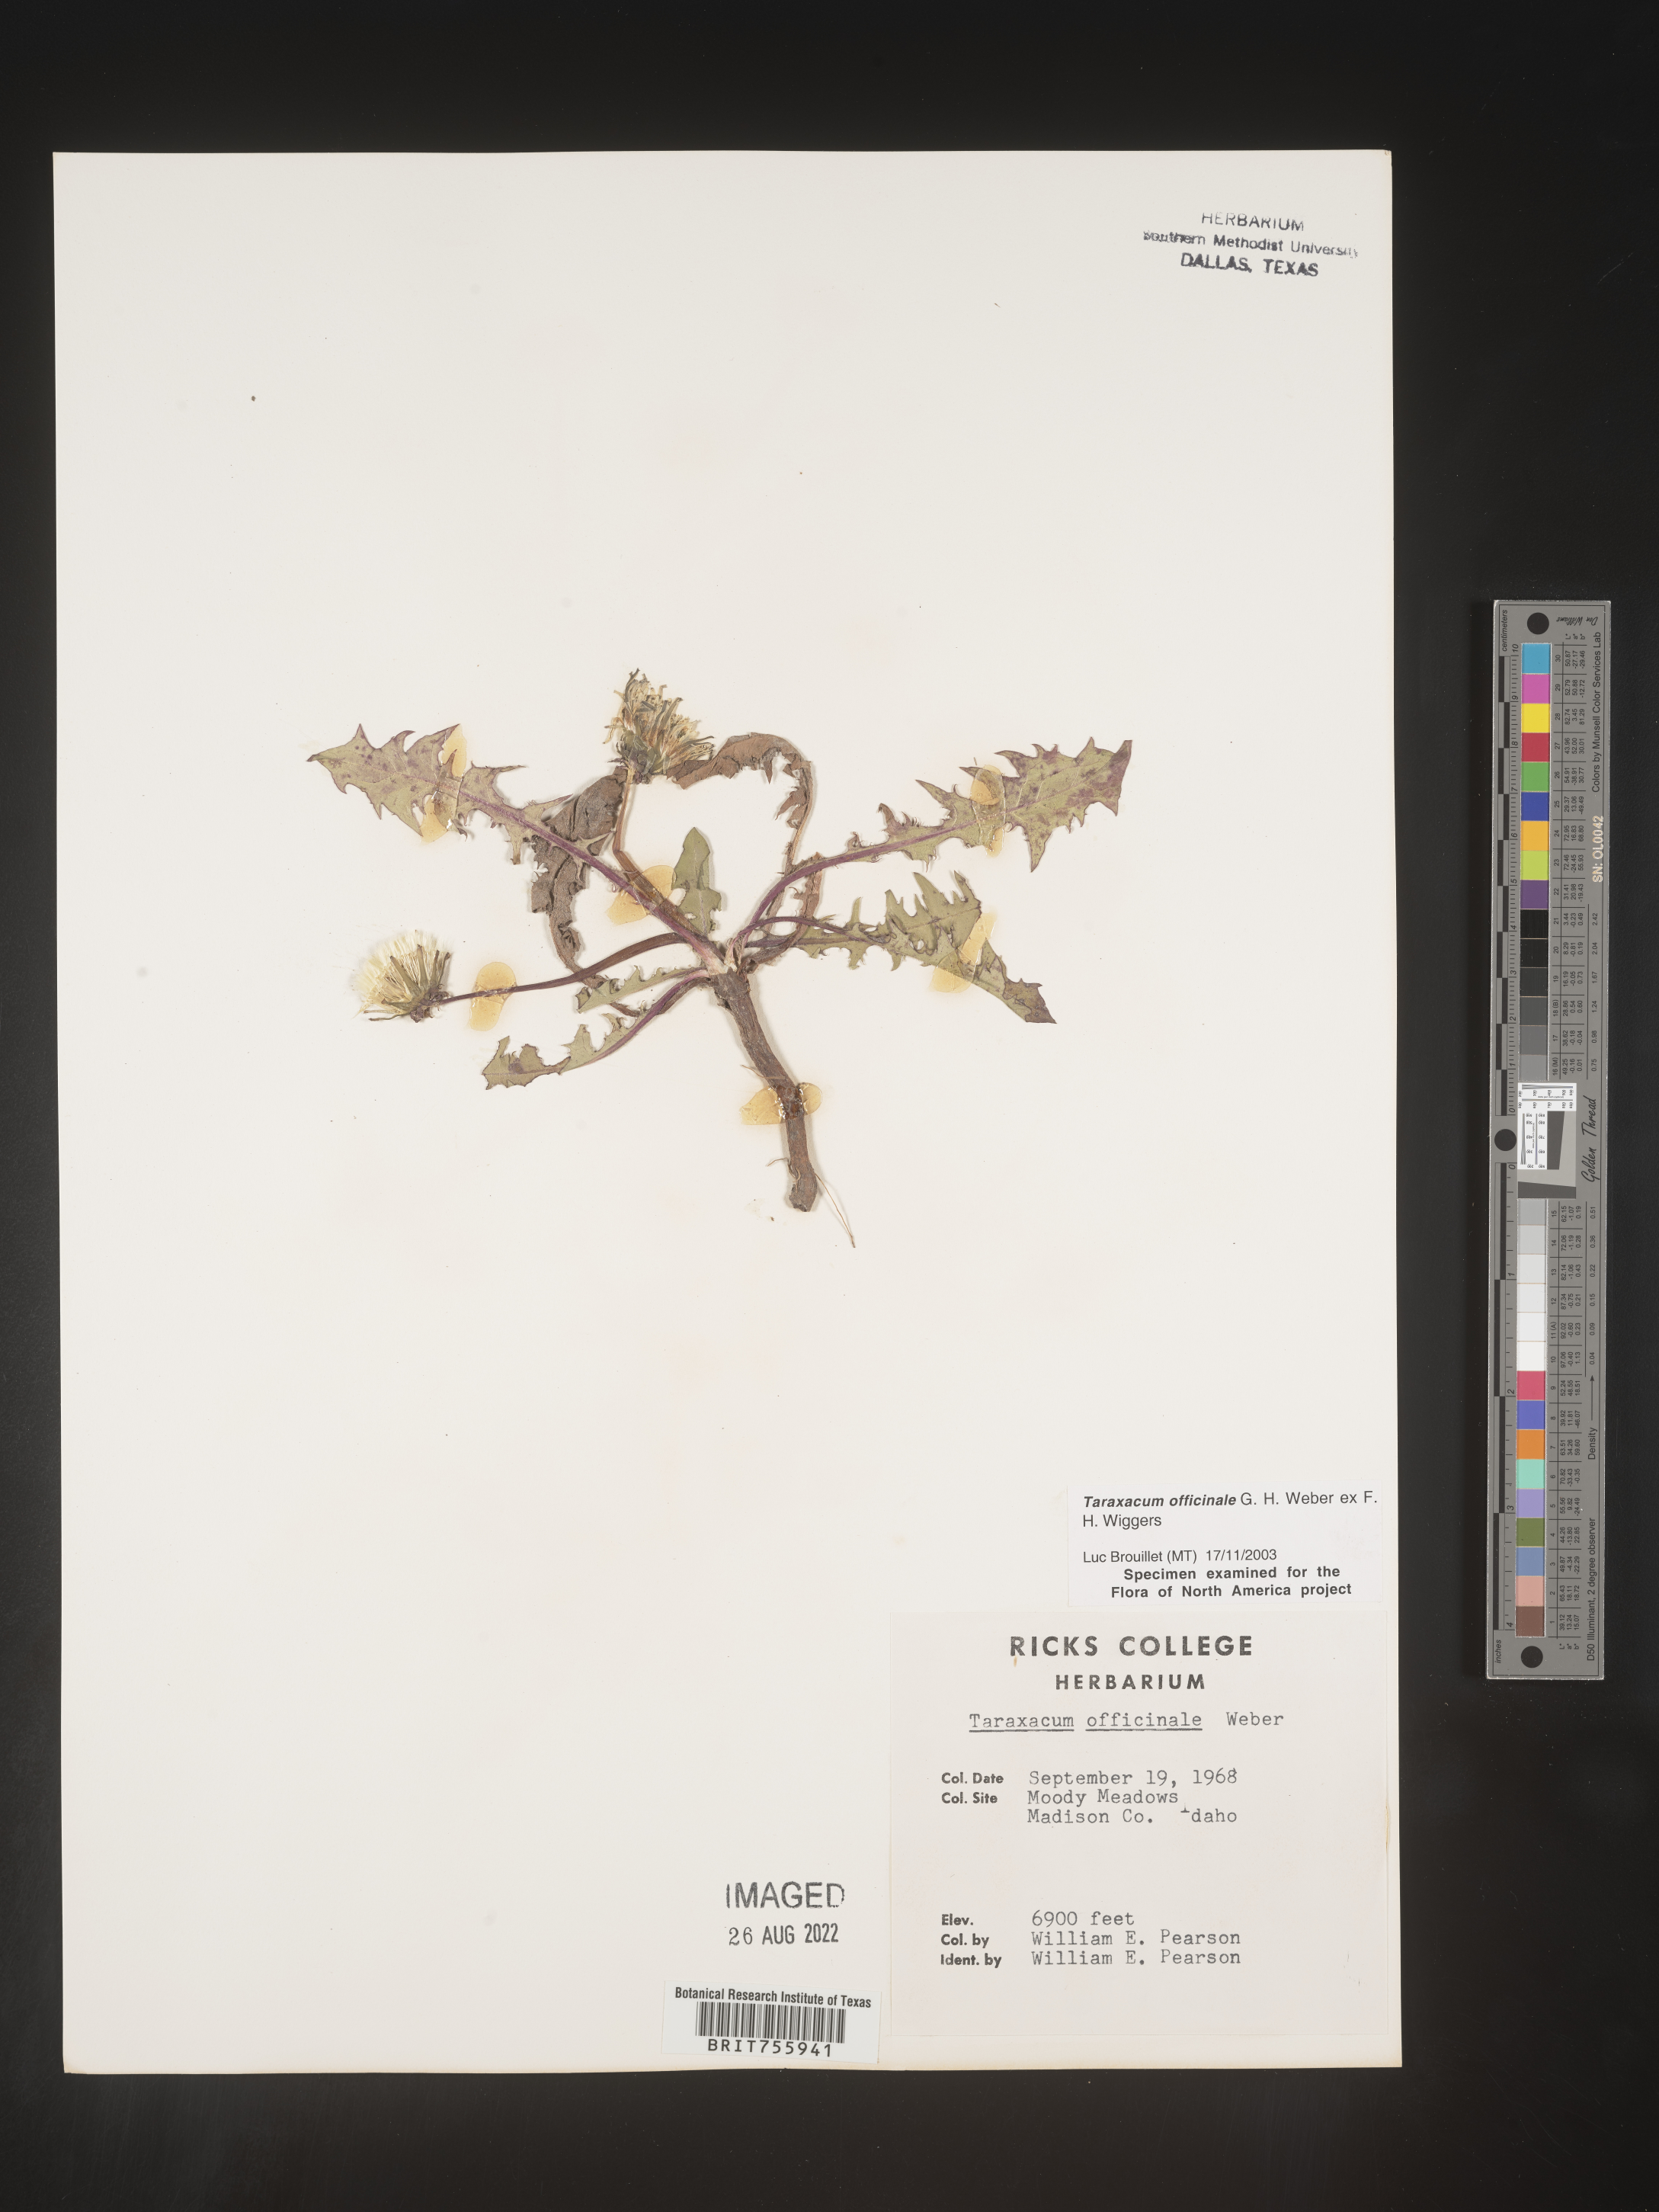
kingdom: Plantae
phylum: Tracheophyta
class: Magnoliopsida
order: Asterales
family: Asteraceae
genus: Taraxacum
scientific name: Taraxacum officinale
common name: Common dandelion
